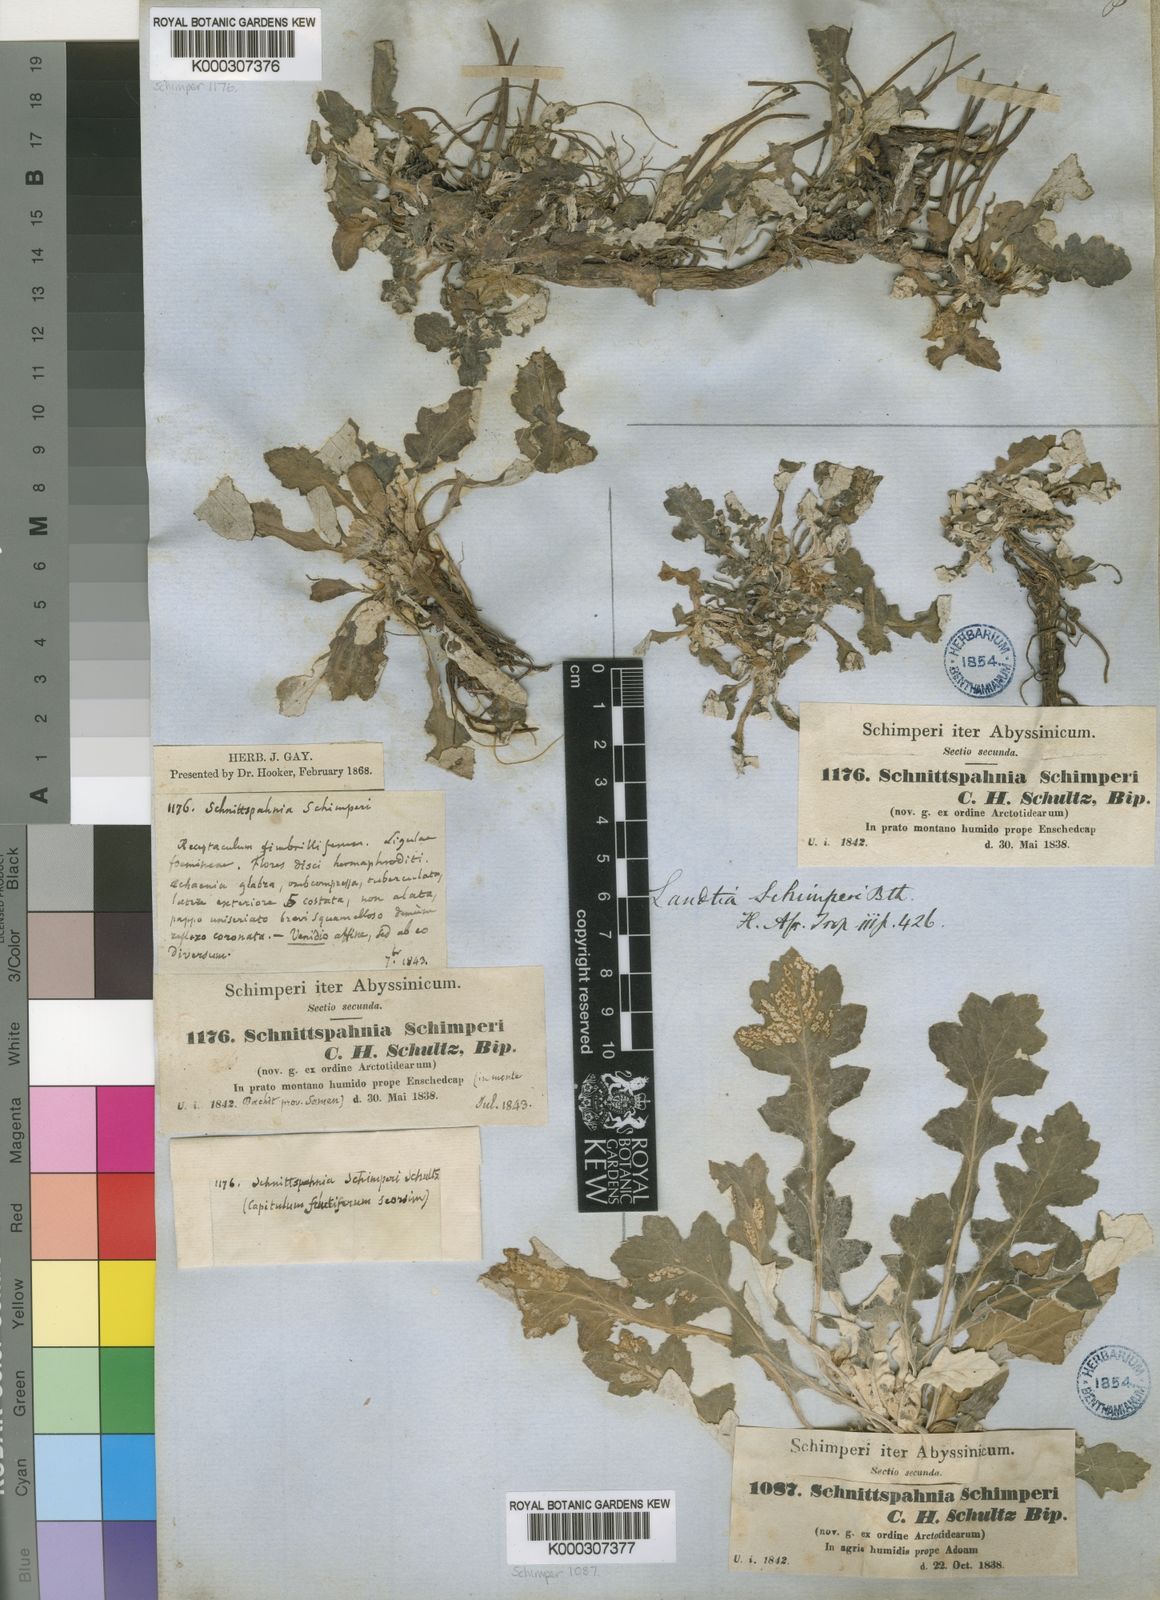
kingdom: Plantae
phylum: Tracheophyta
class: Magnoliopsida
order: Asterales
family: Asteraceae
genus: Haplocarpha
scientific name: Haplocarpha schimperi
